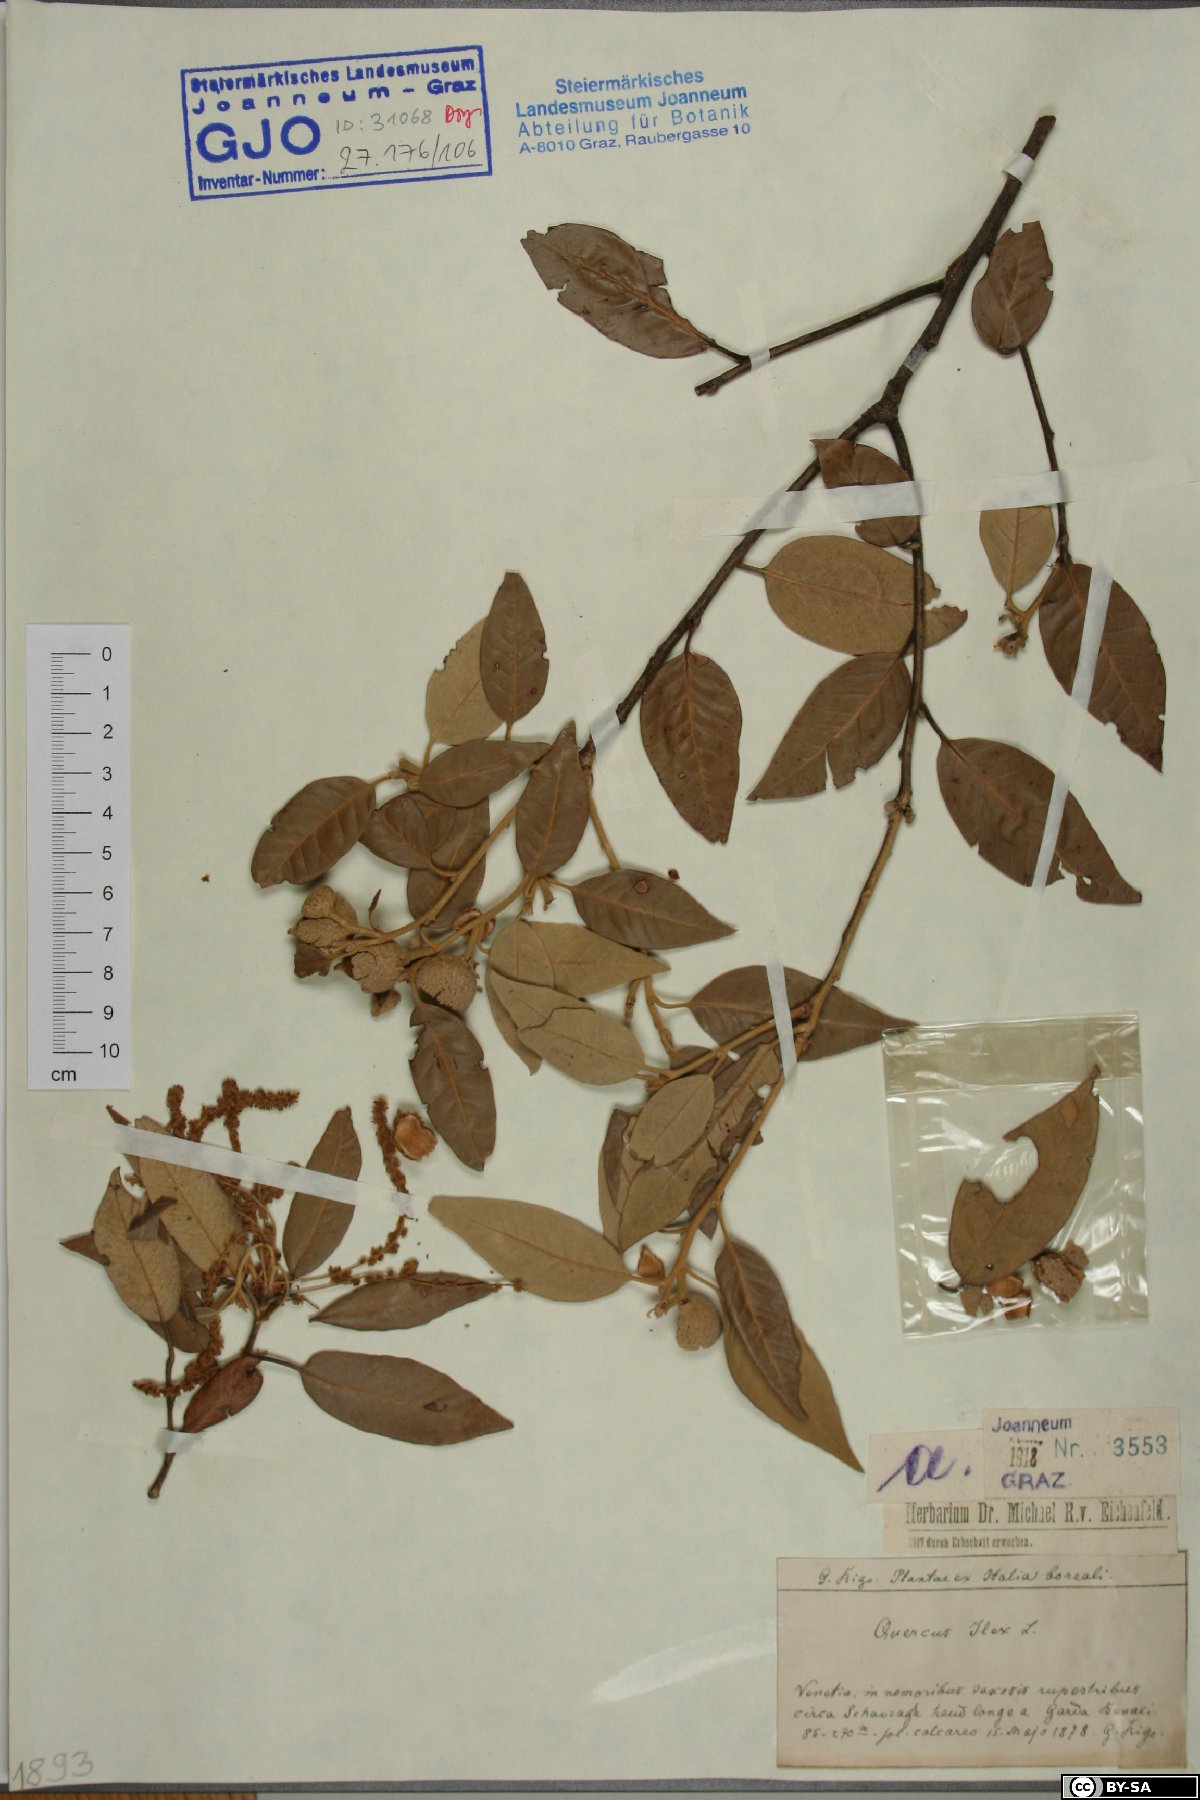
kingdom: Plantae
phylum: Tracheophyta
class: Magnoliopsida
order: Fagales
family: Fagaceae
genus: Quercus
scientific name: Quercus ilex
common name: Evergreen oak
